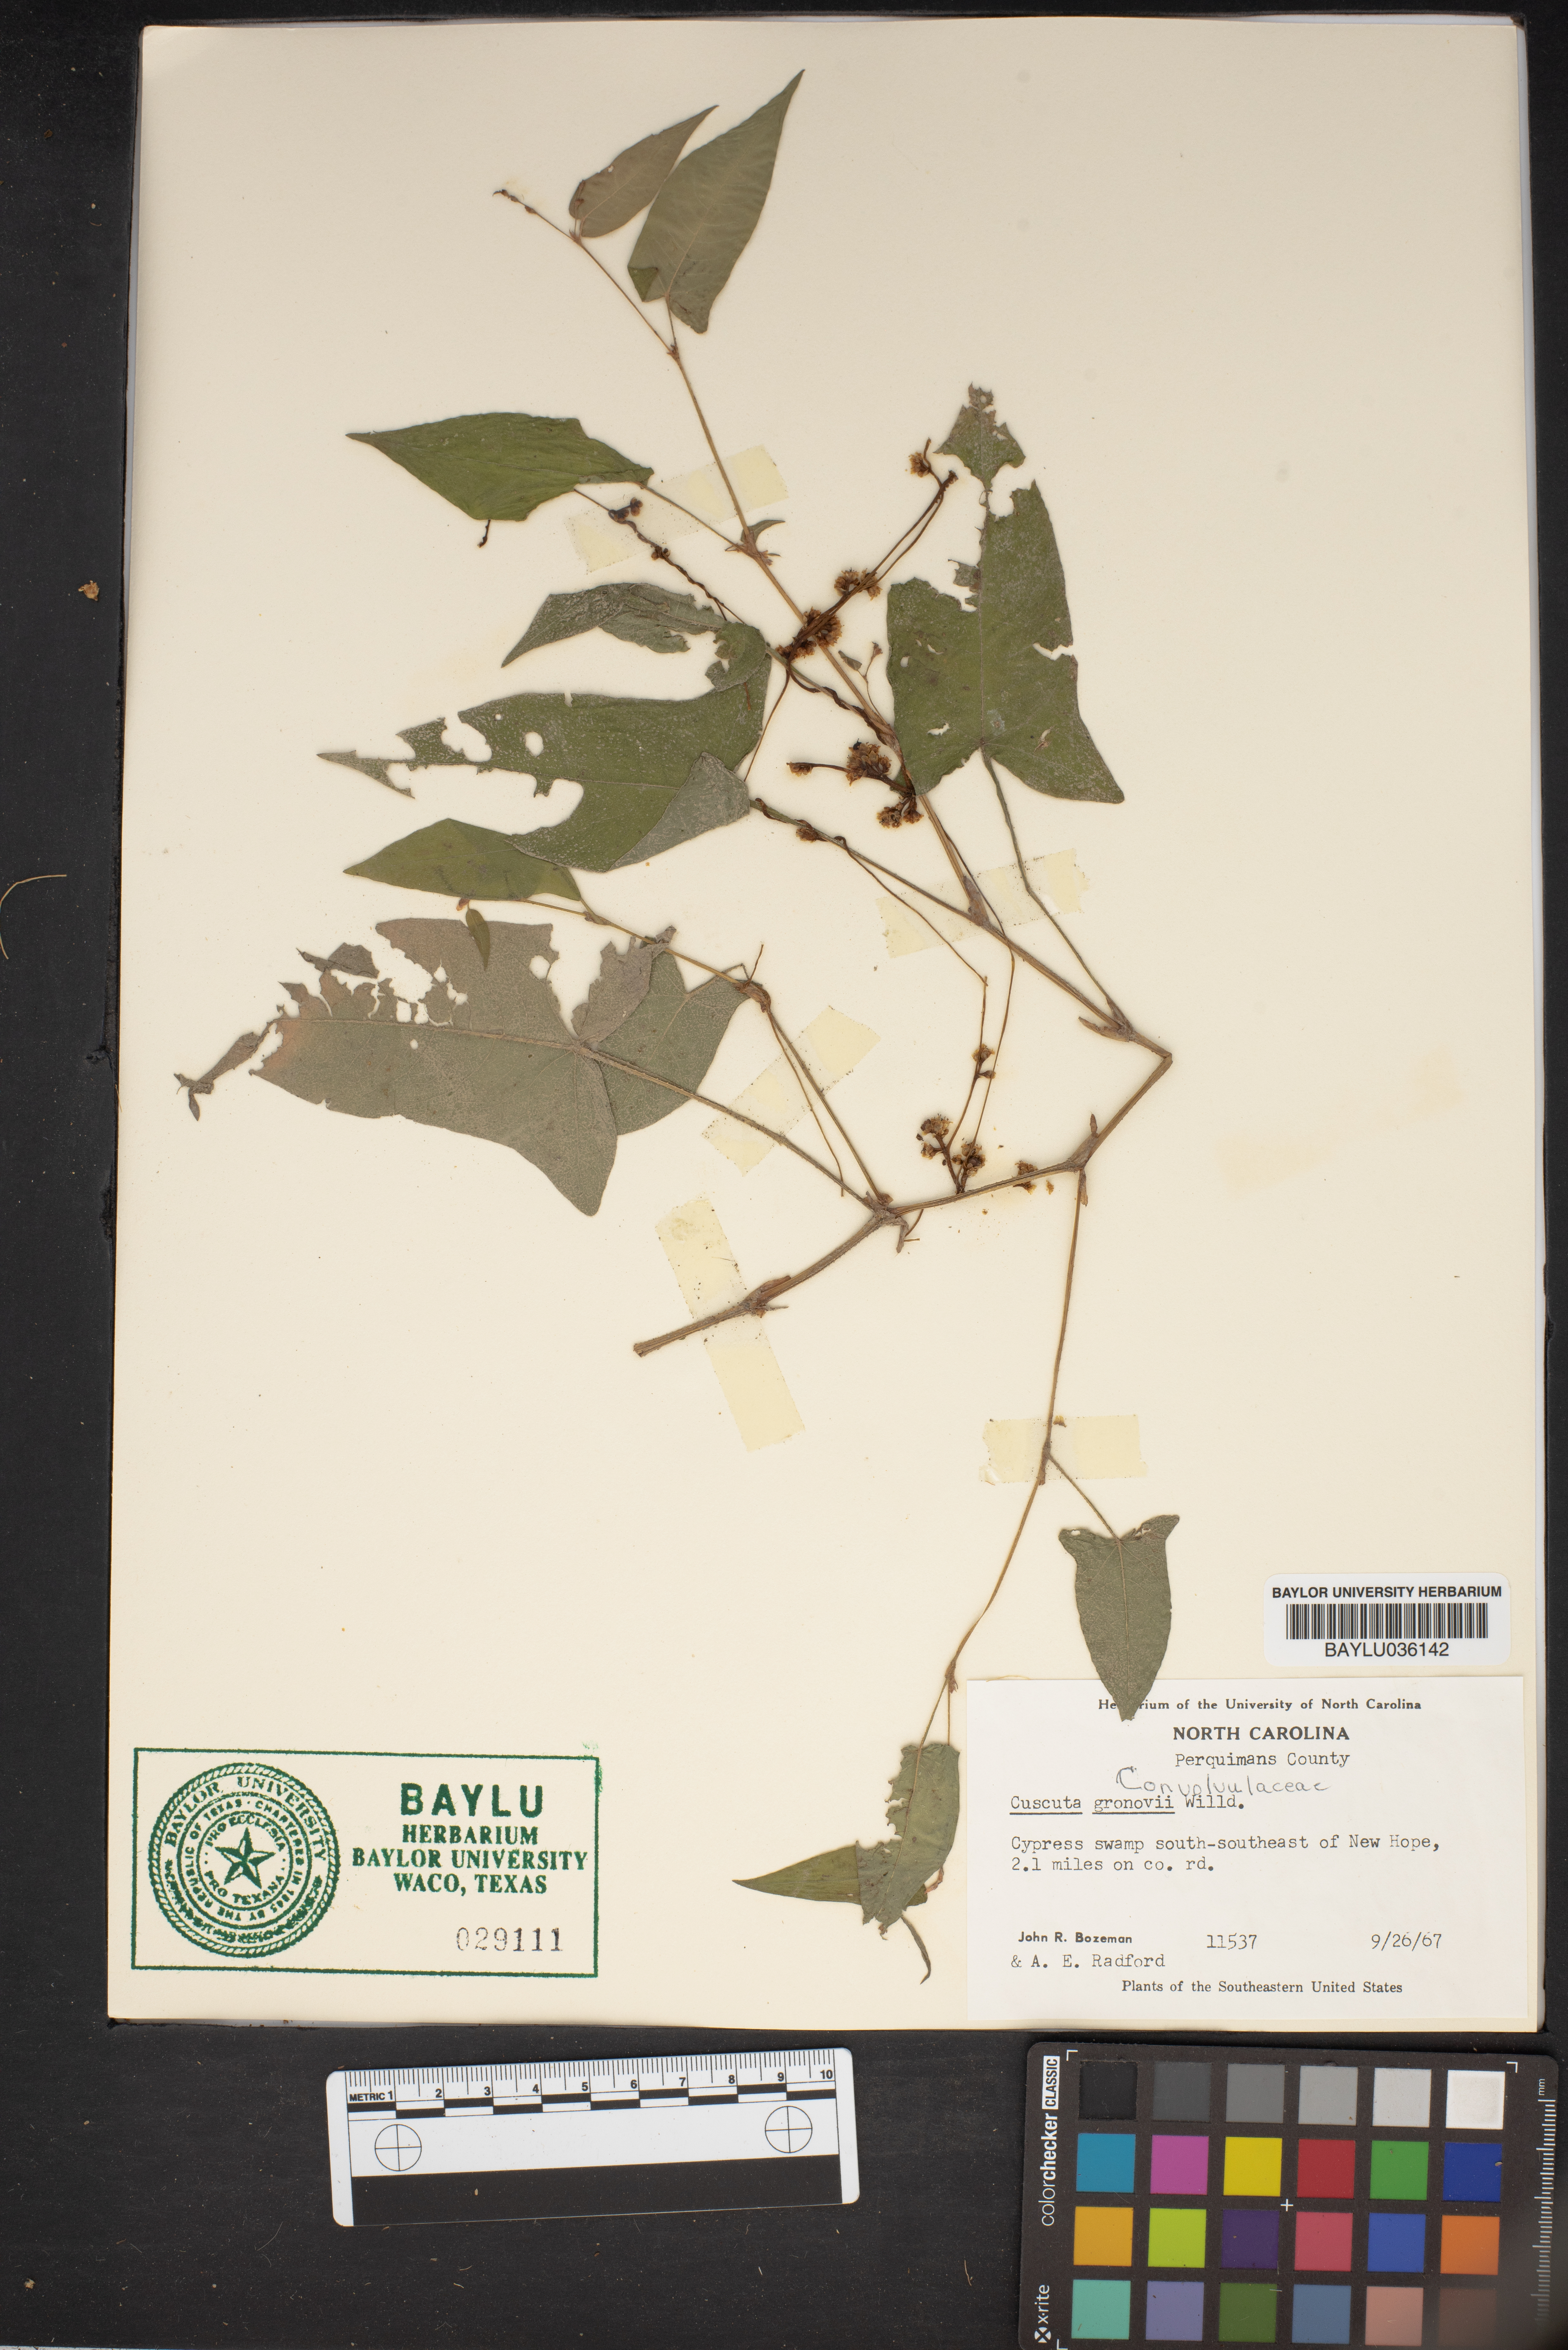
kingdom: Plantae
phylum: Tracheophyta
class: Magnoliopsida
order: Solanales
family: Convolvulaceae
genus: Cuscuta
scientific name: Cuscuta gronovii
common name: Common dodder
